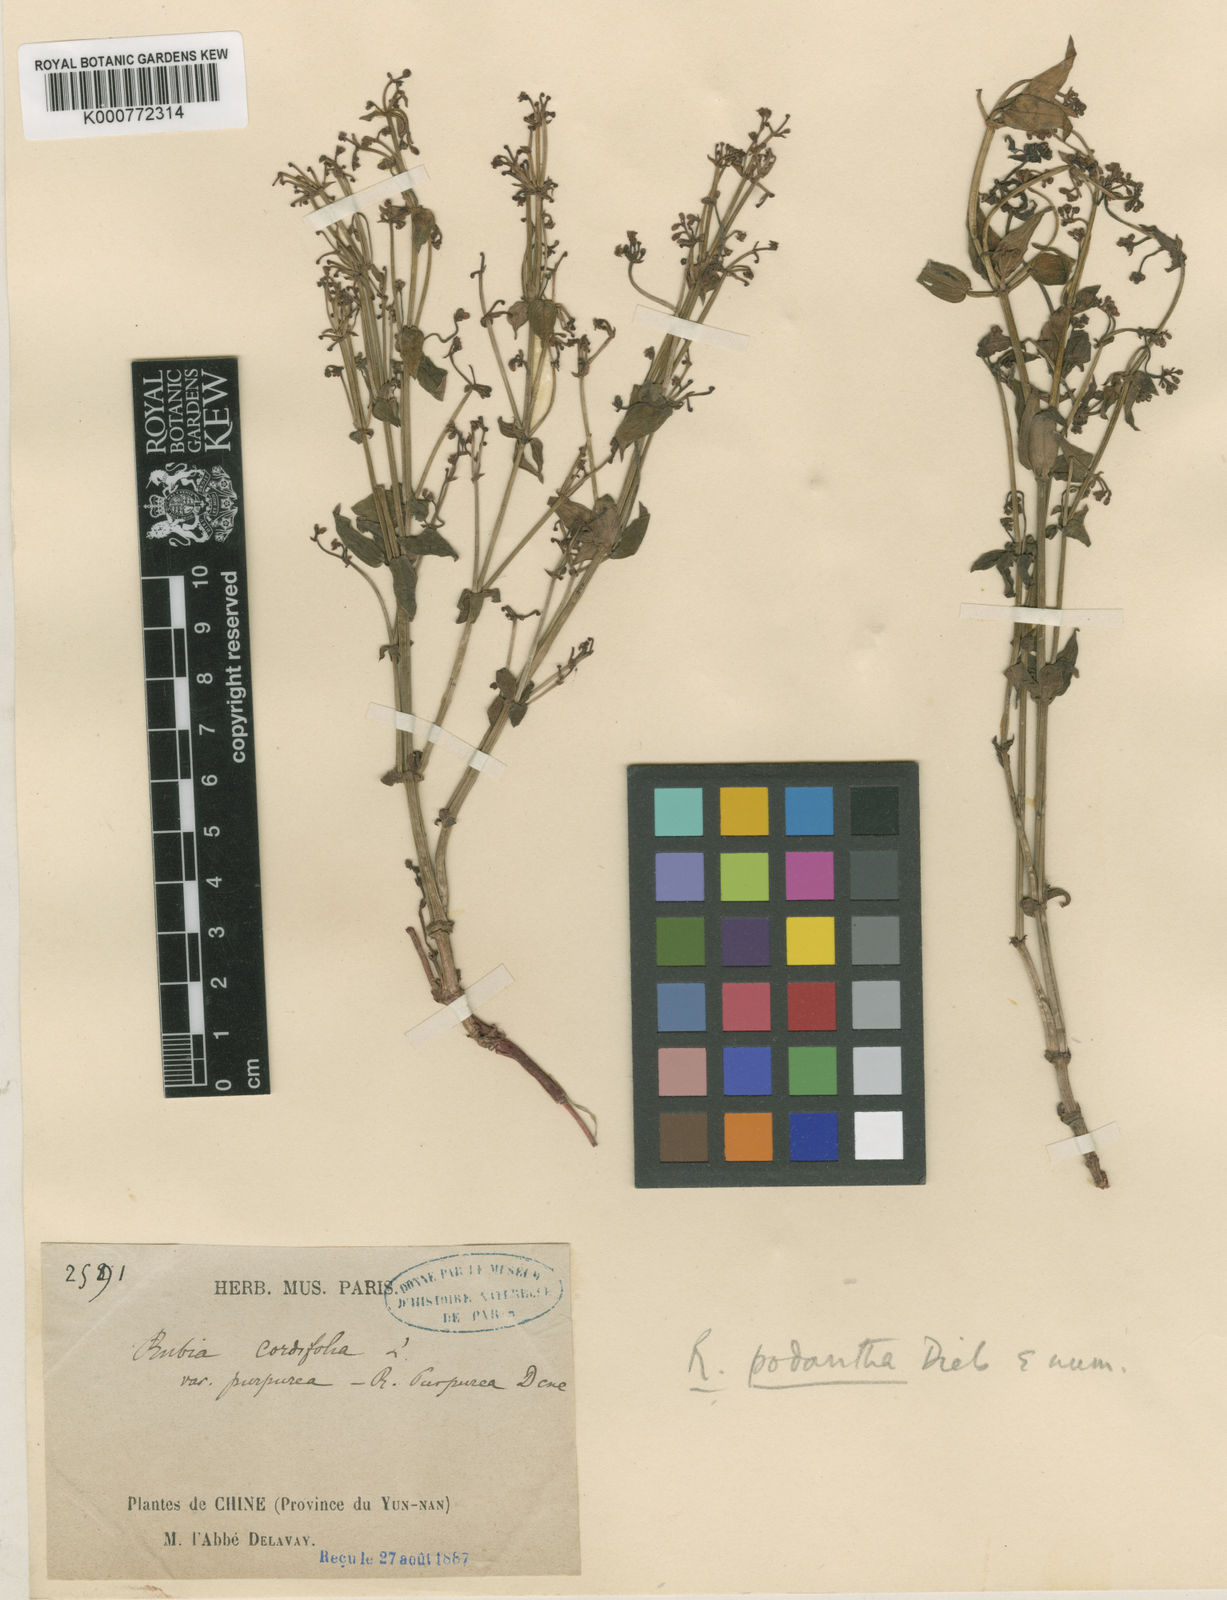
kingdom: Plantae
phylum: Tracheophyta
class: Magnoliopsida
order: Gentianales
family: Rubiaceae
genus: Rubia
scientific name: Rubia podantha
